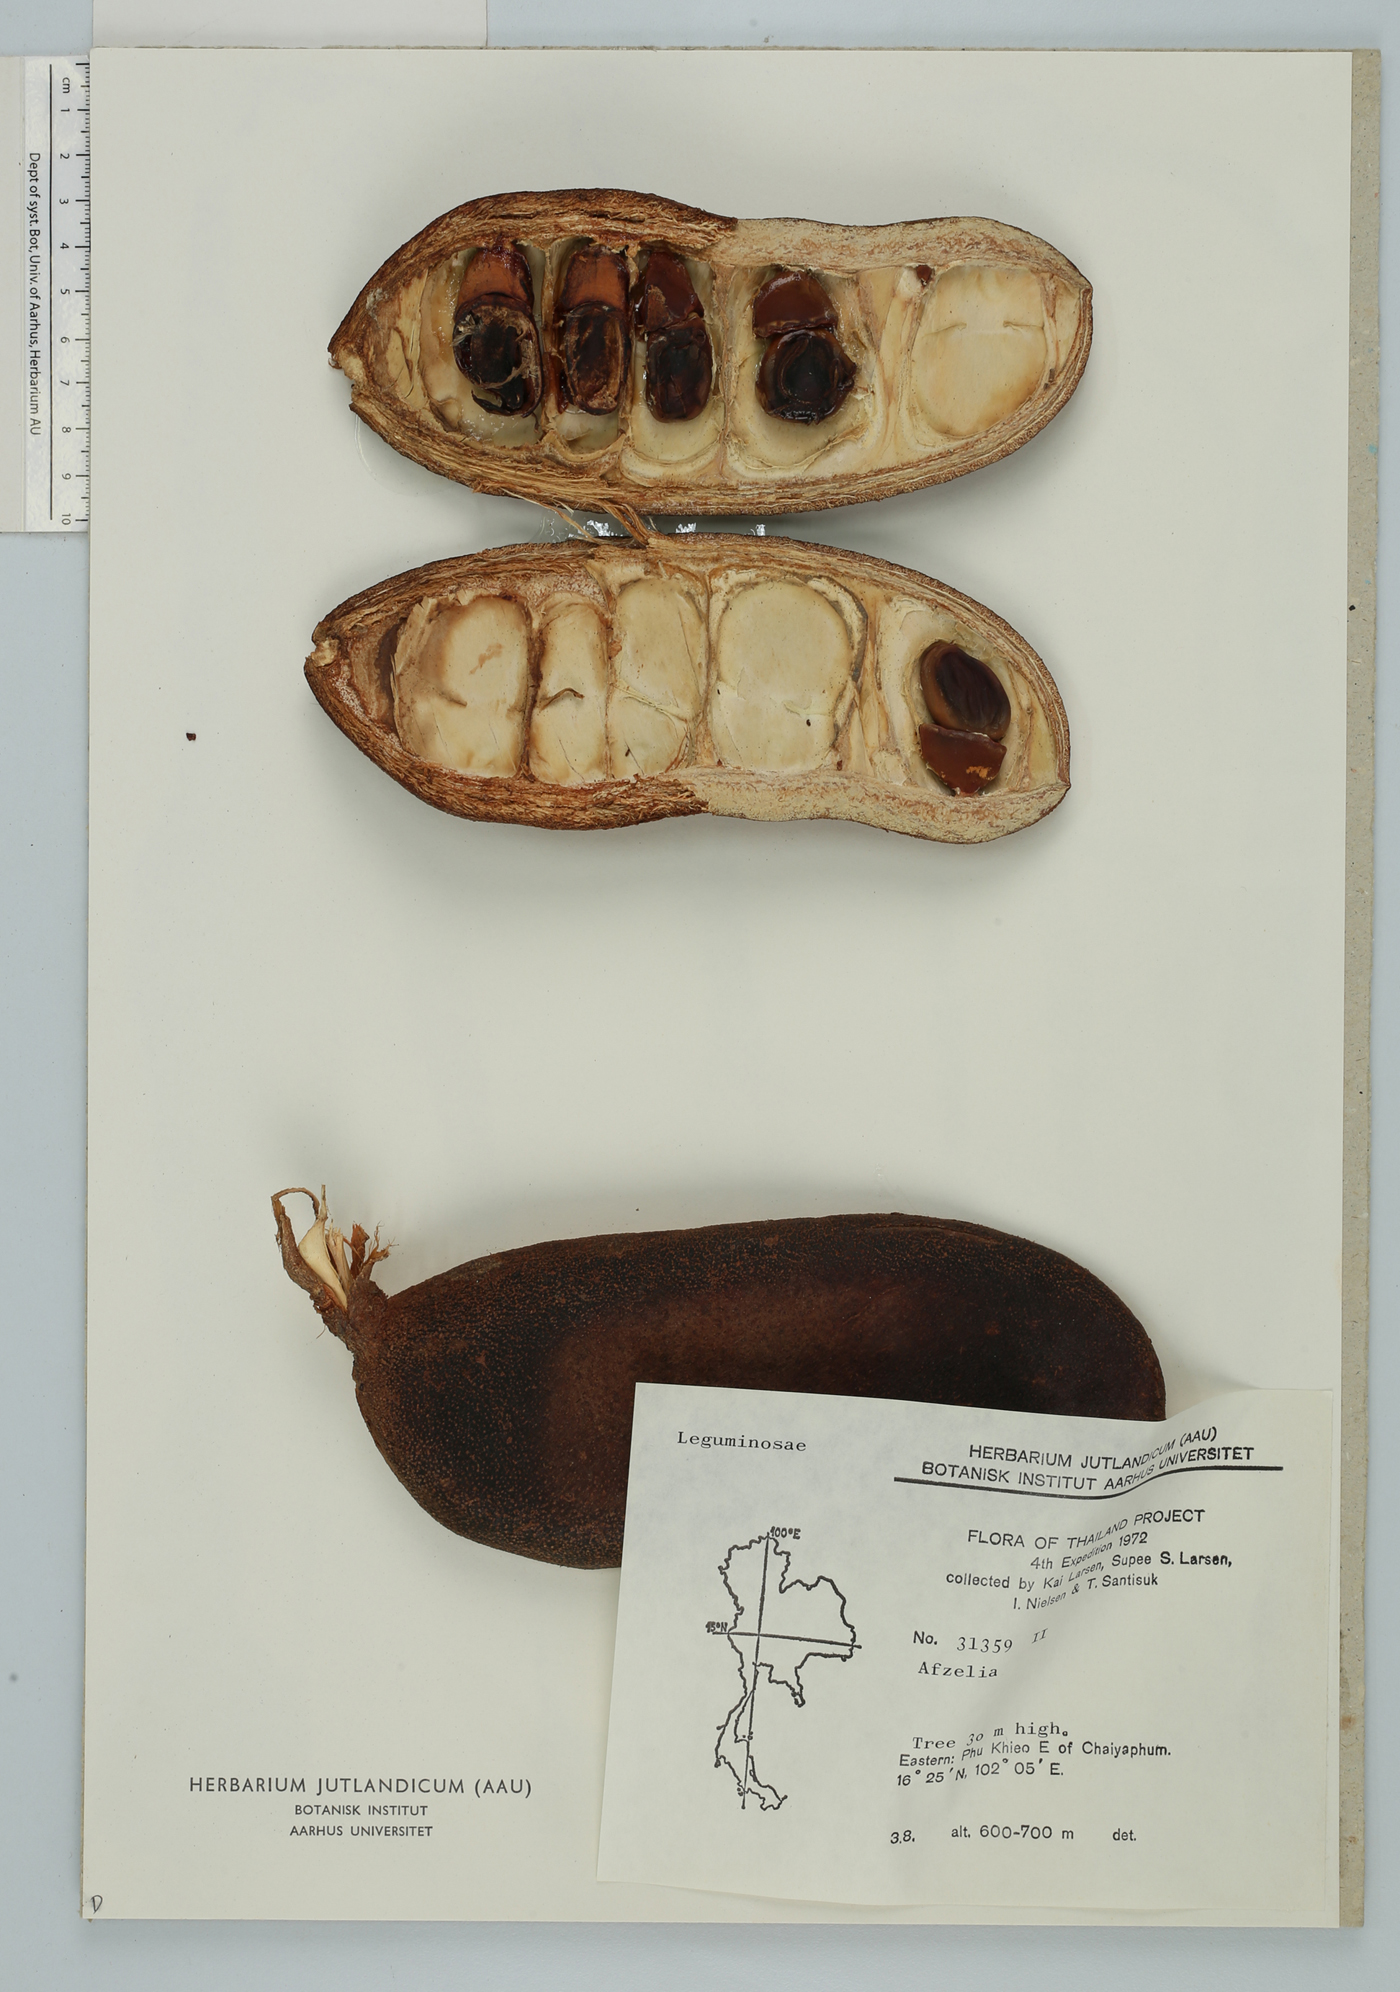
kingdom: Plantae
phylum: Tracheophyta
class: Magnoliopsida
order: Fabales
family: Fabaceae
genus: Afzelia
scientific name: Afzelia xylocarpa
